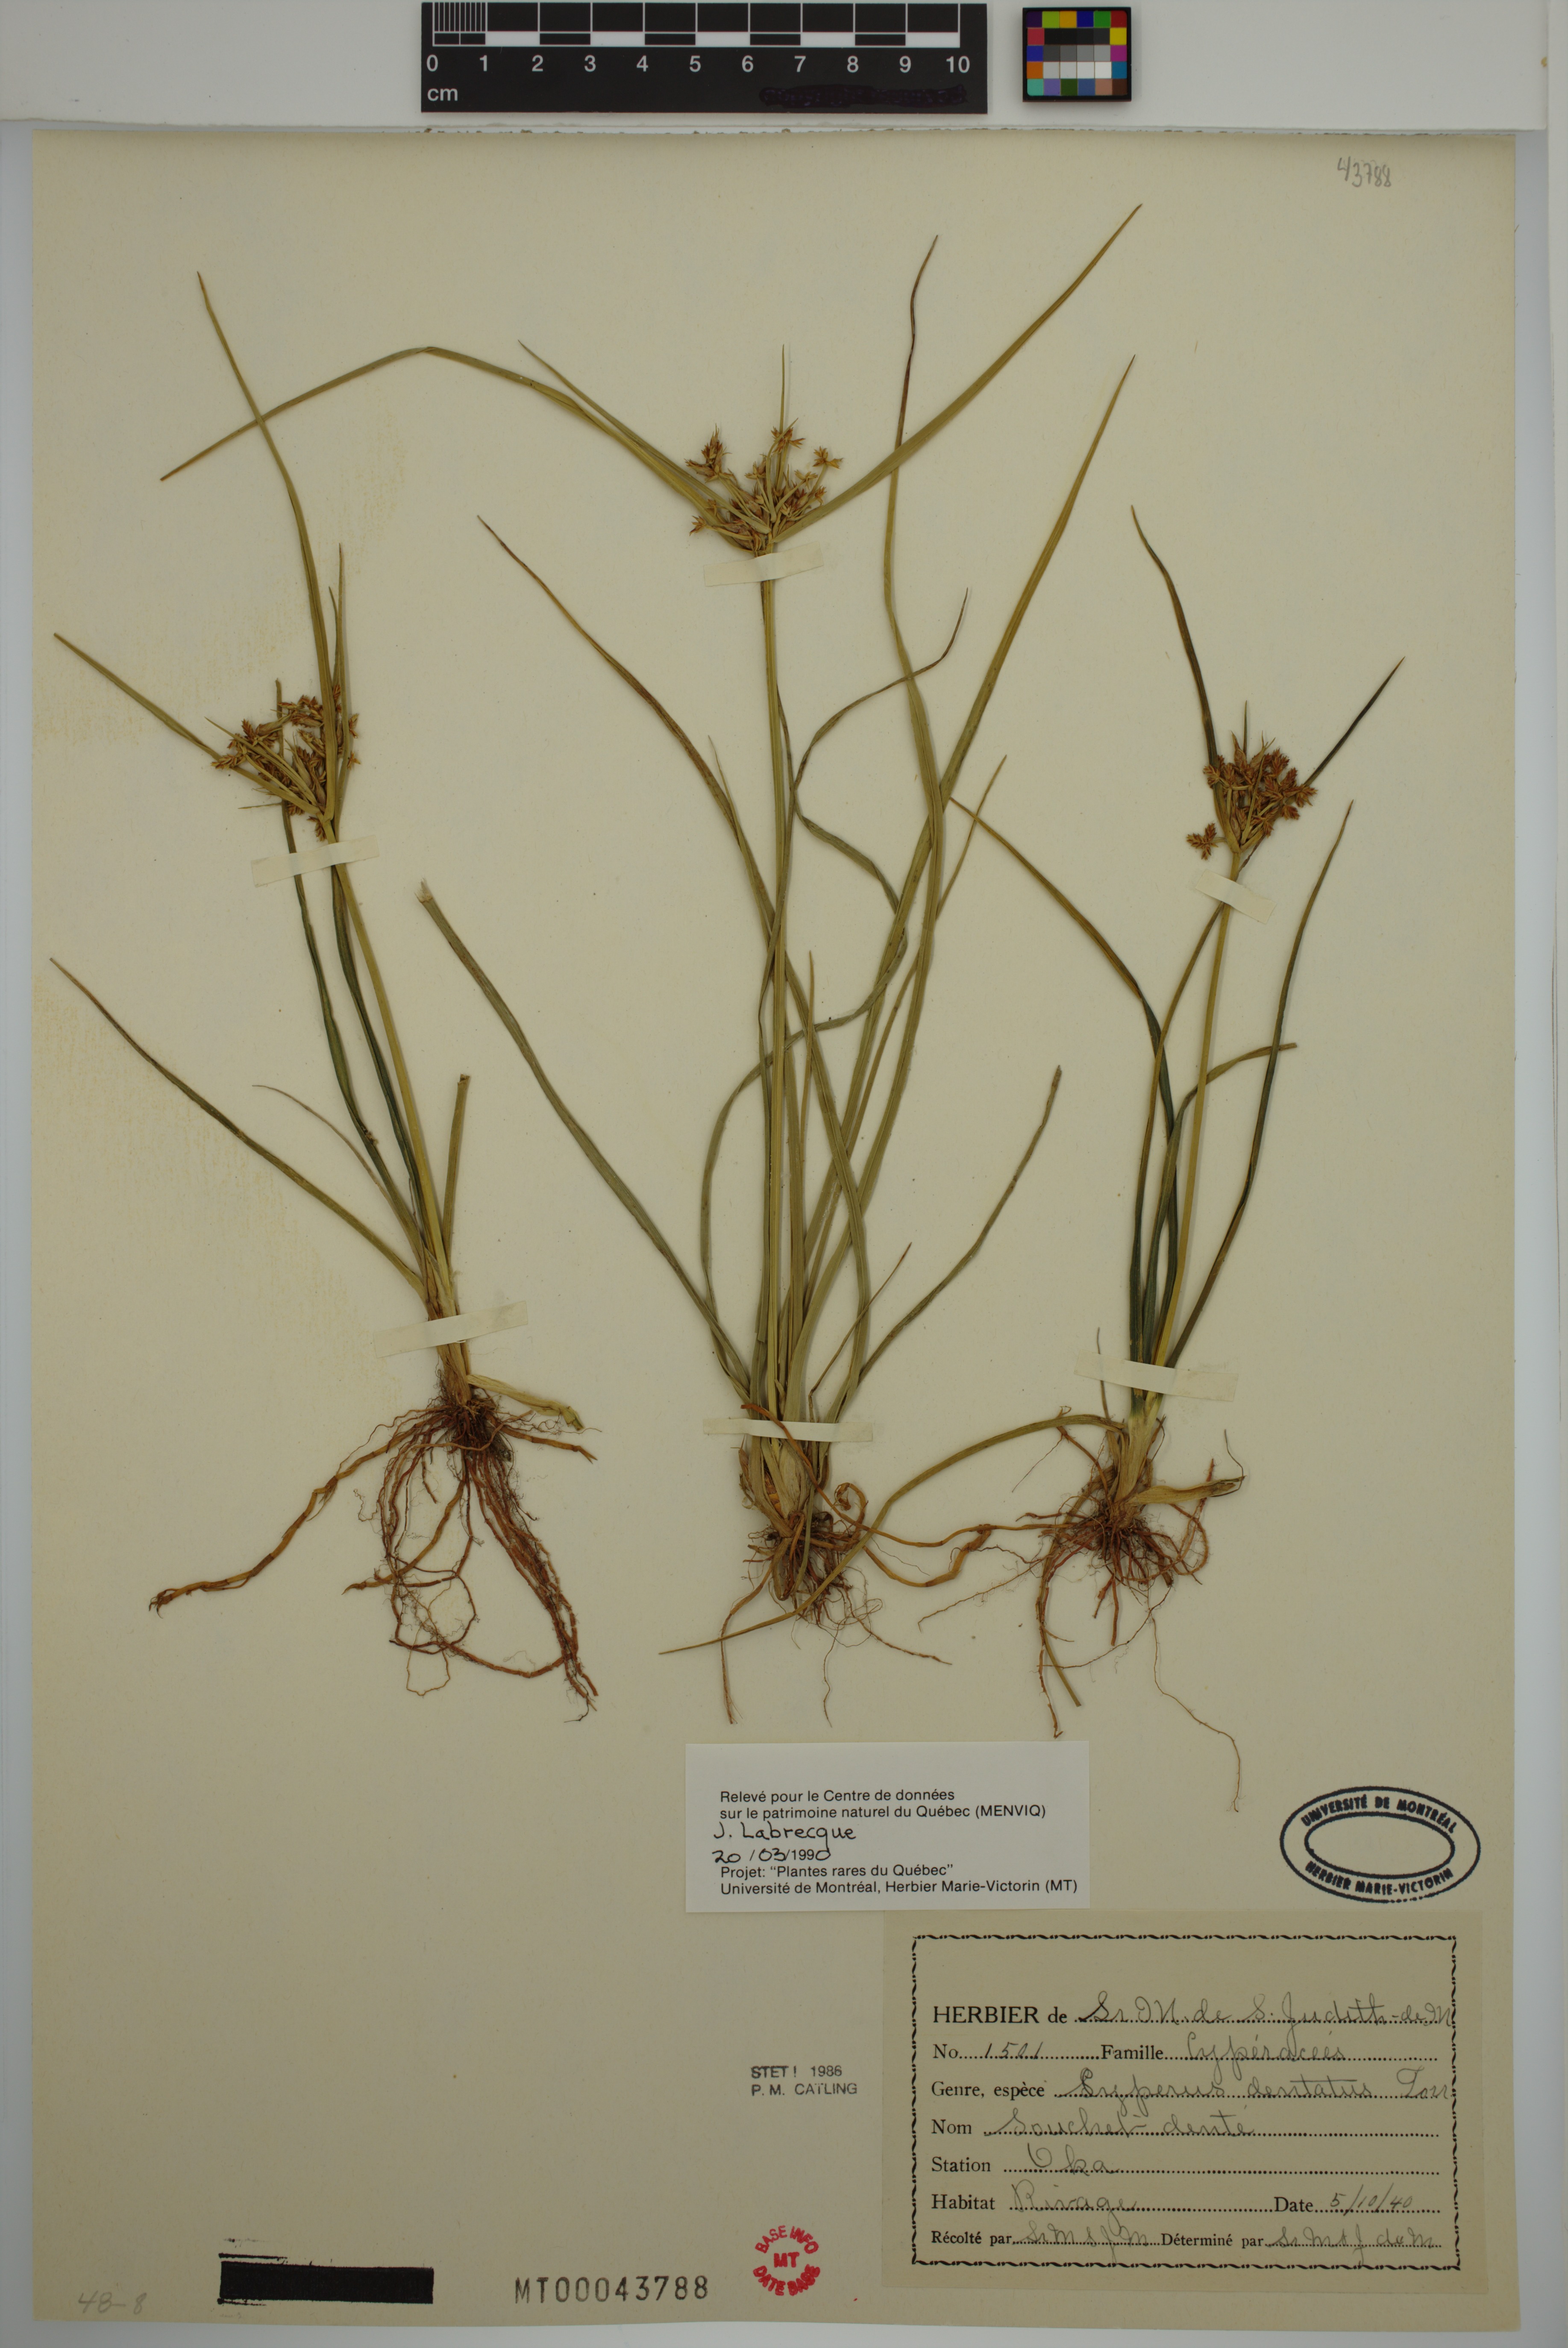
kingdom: Plantae
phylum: Tracheophyta
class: Liliopsida
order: Poales
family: Cyperaceae
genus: Cyperus
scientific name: Cyperus dentatus
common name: Dentate umbrella sedge
